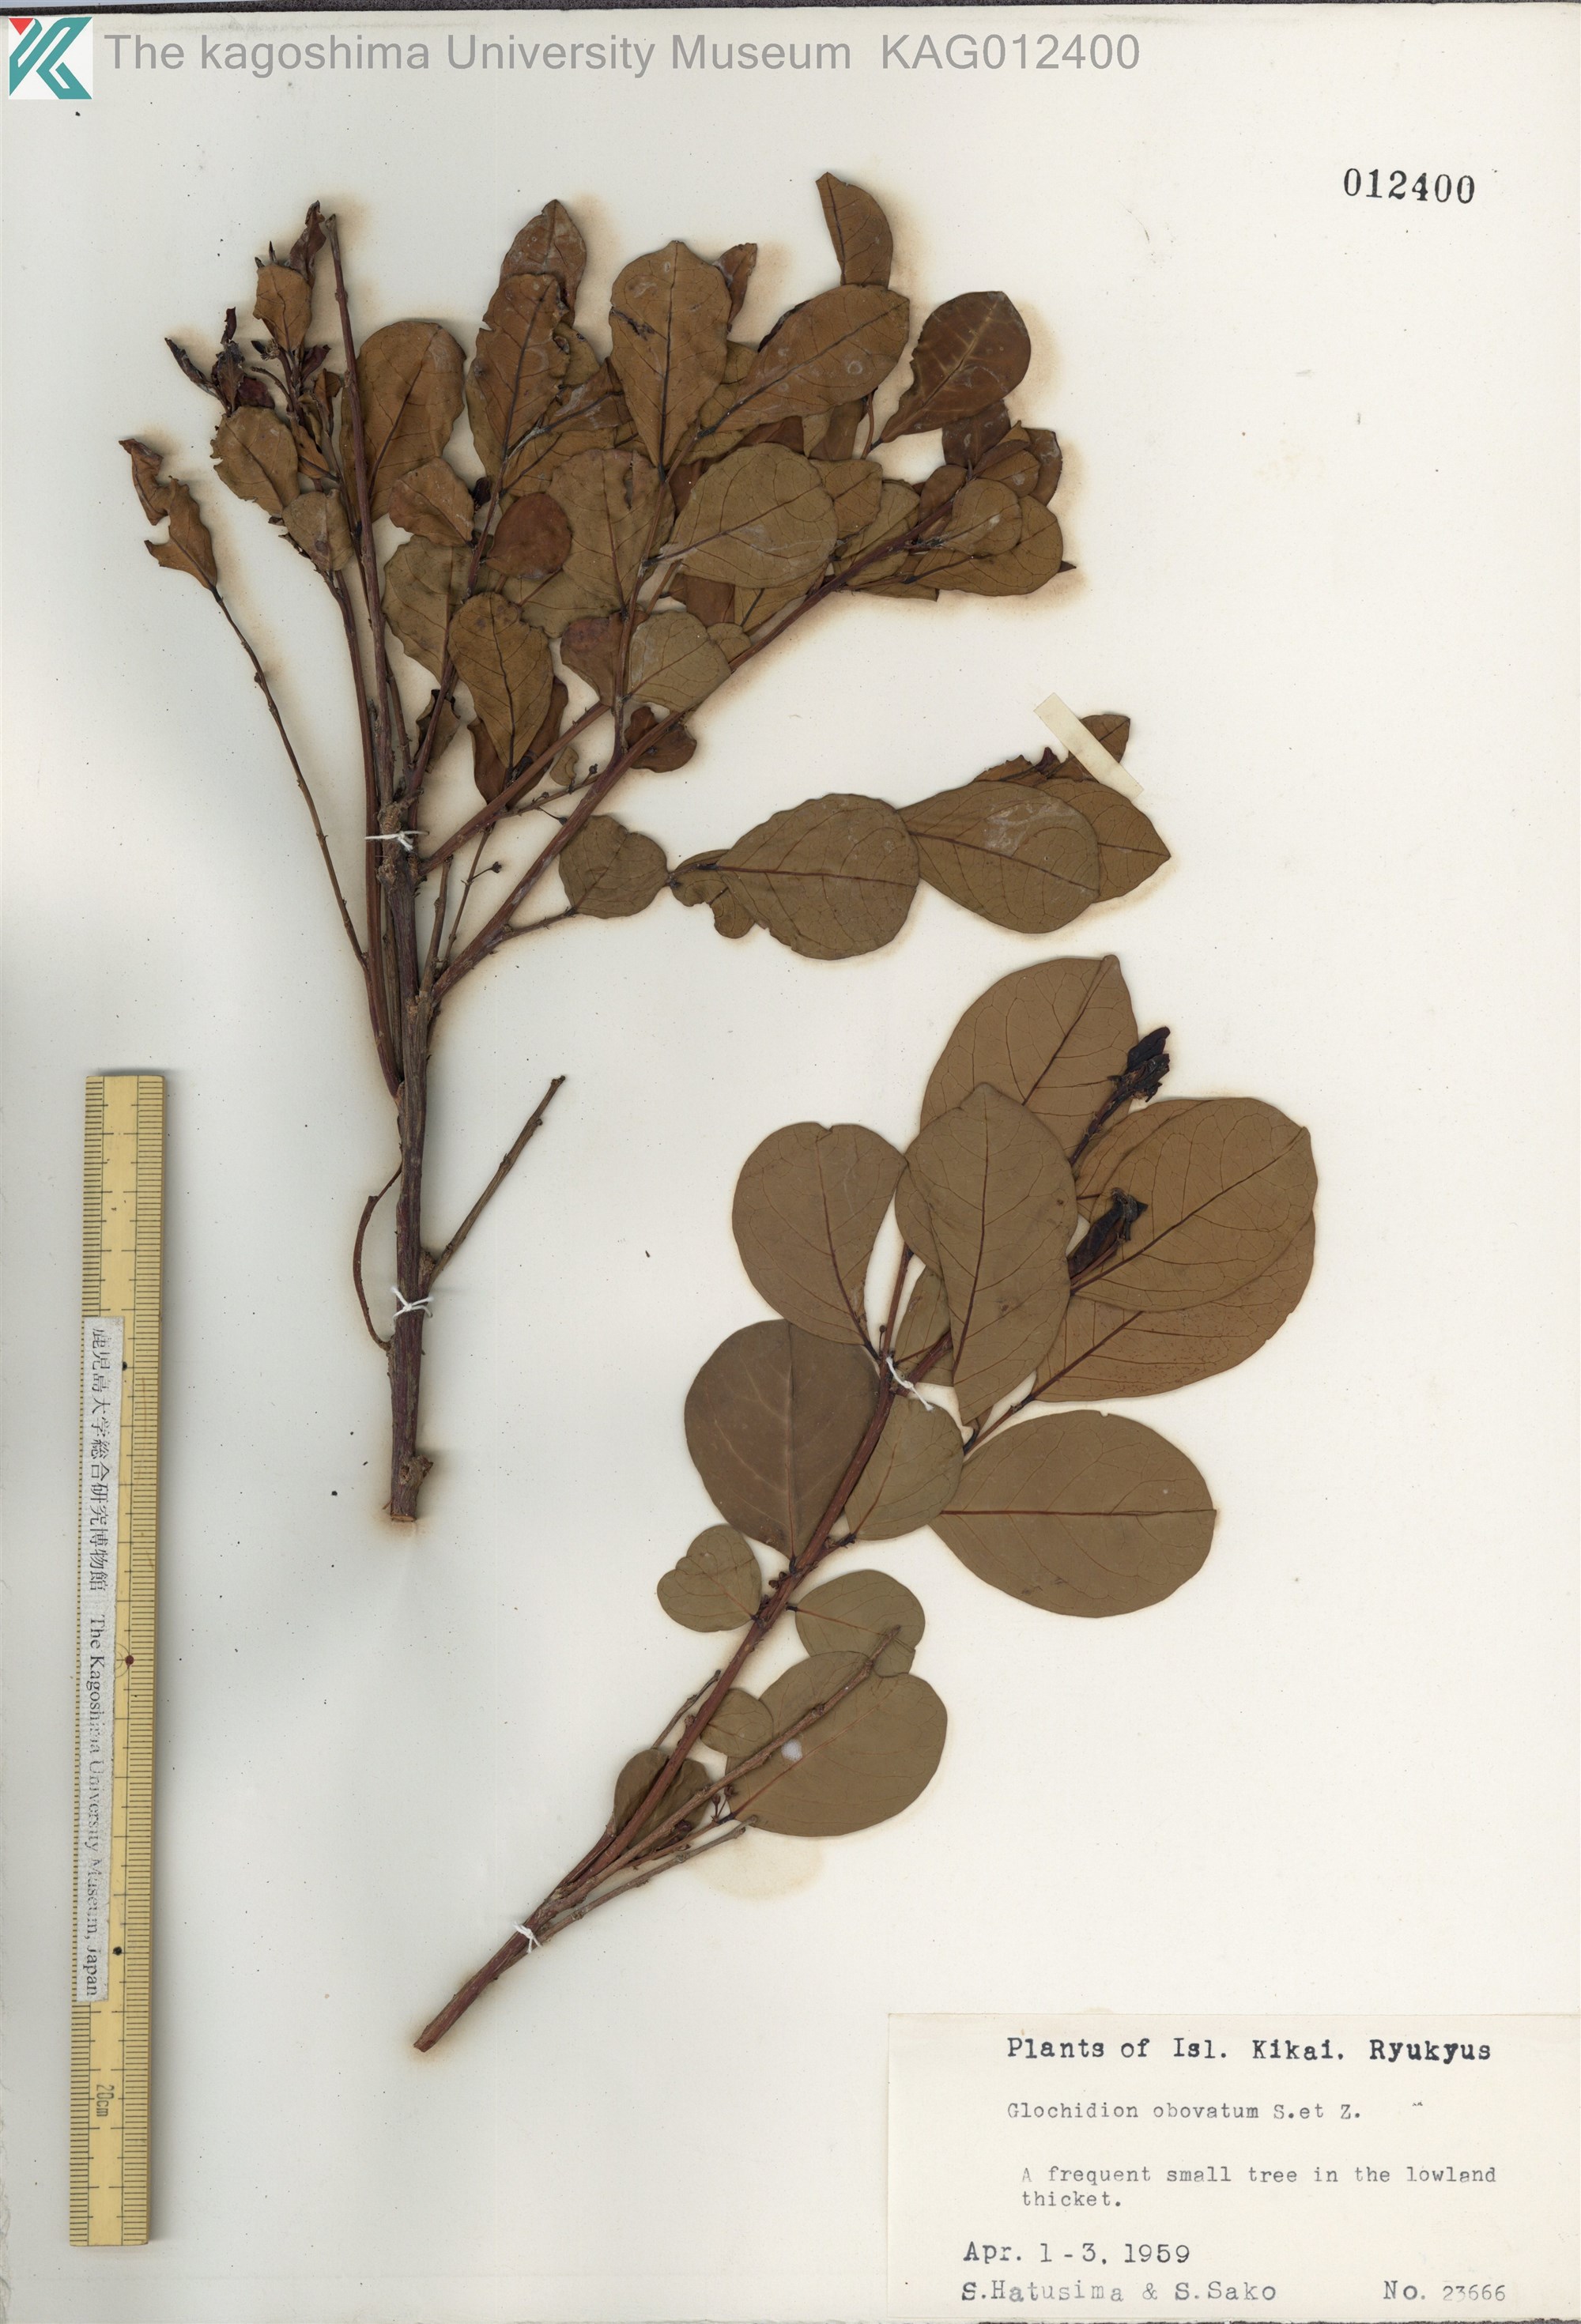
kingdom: Plantae
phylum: Tracheophyta
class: Magnoliopsida
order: Malpighiales
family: Phyllanthaceae
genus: Glochidion
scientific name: Glochidion obovatum
